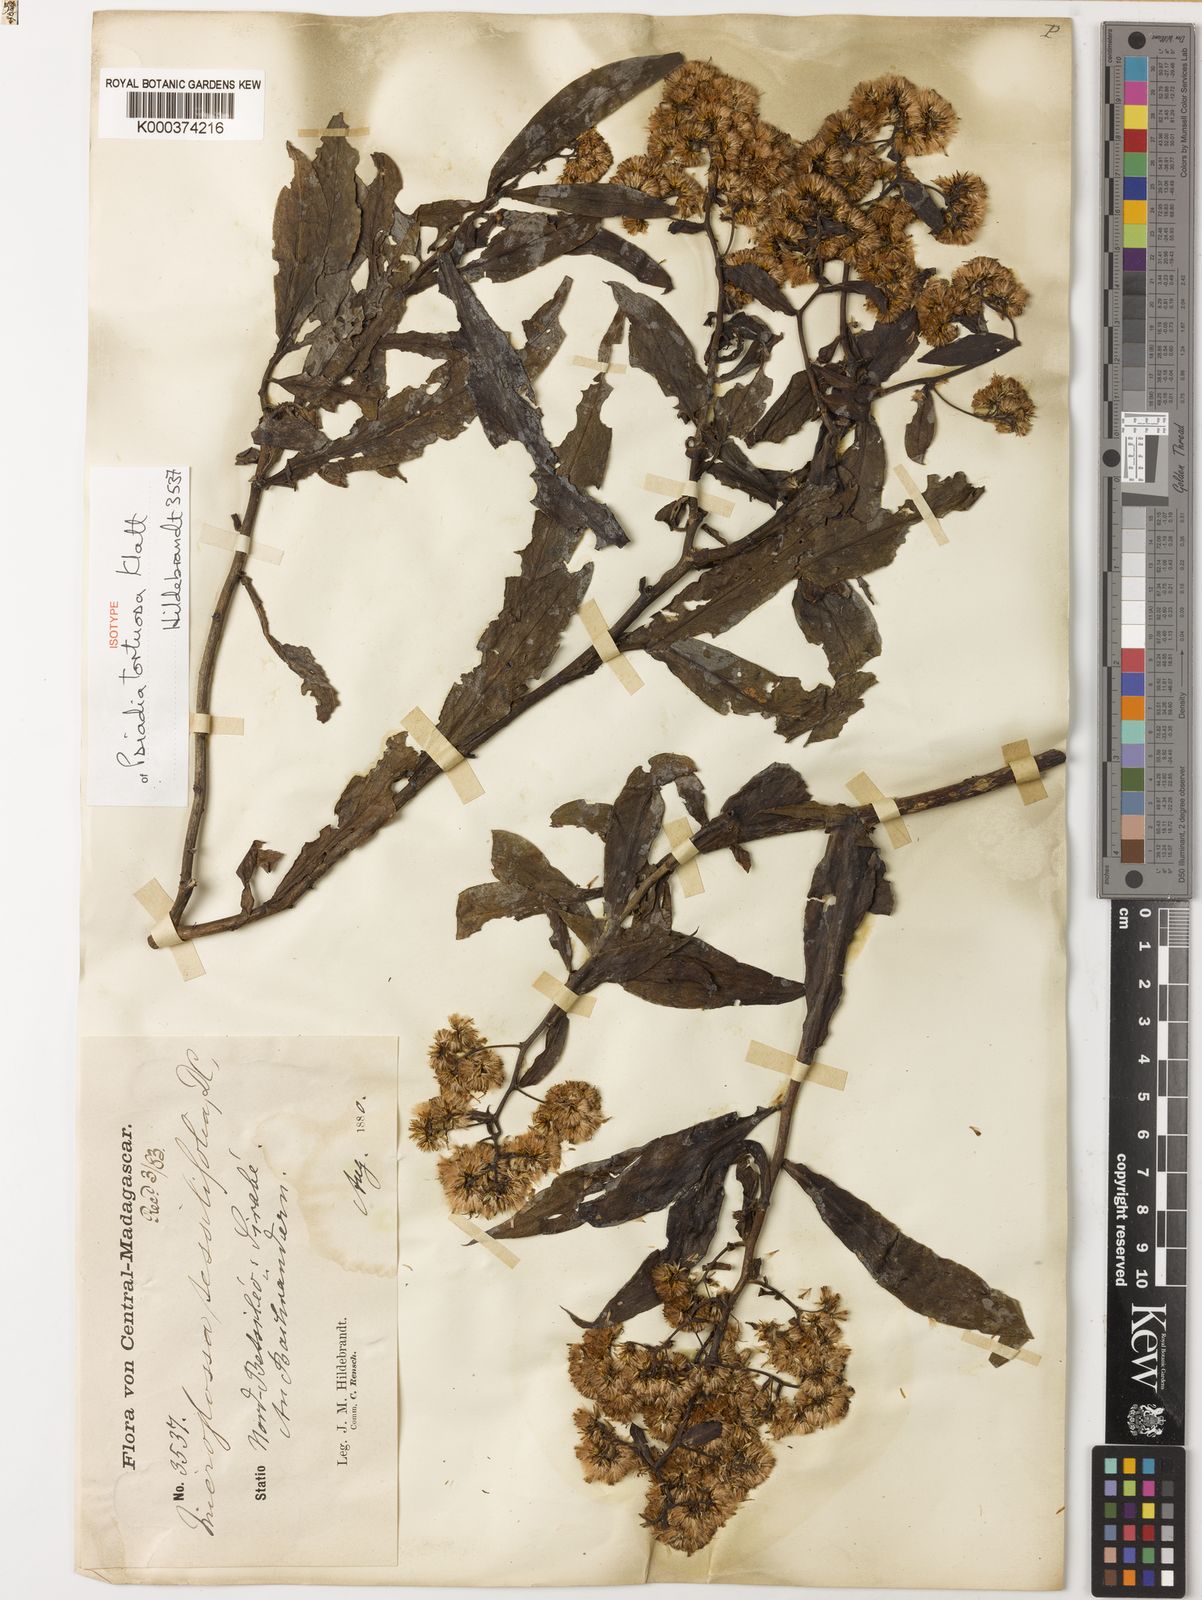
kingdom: Plantae
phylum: Tracheophyta
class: Magnoliopsida
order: Asterales
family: Asteraceae
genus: Psiadia
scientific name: Psiadia lucida
